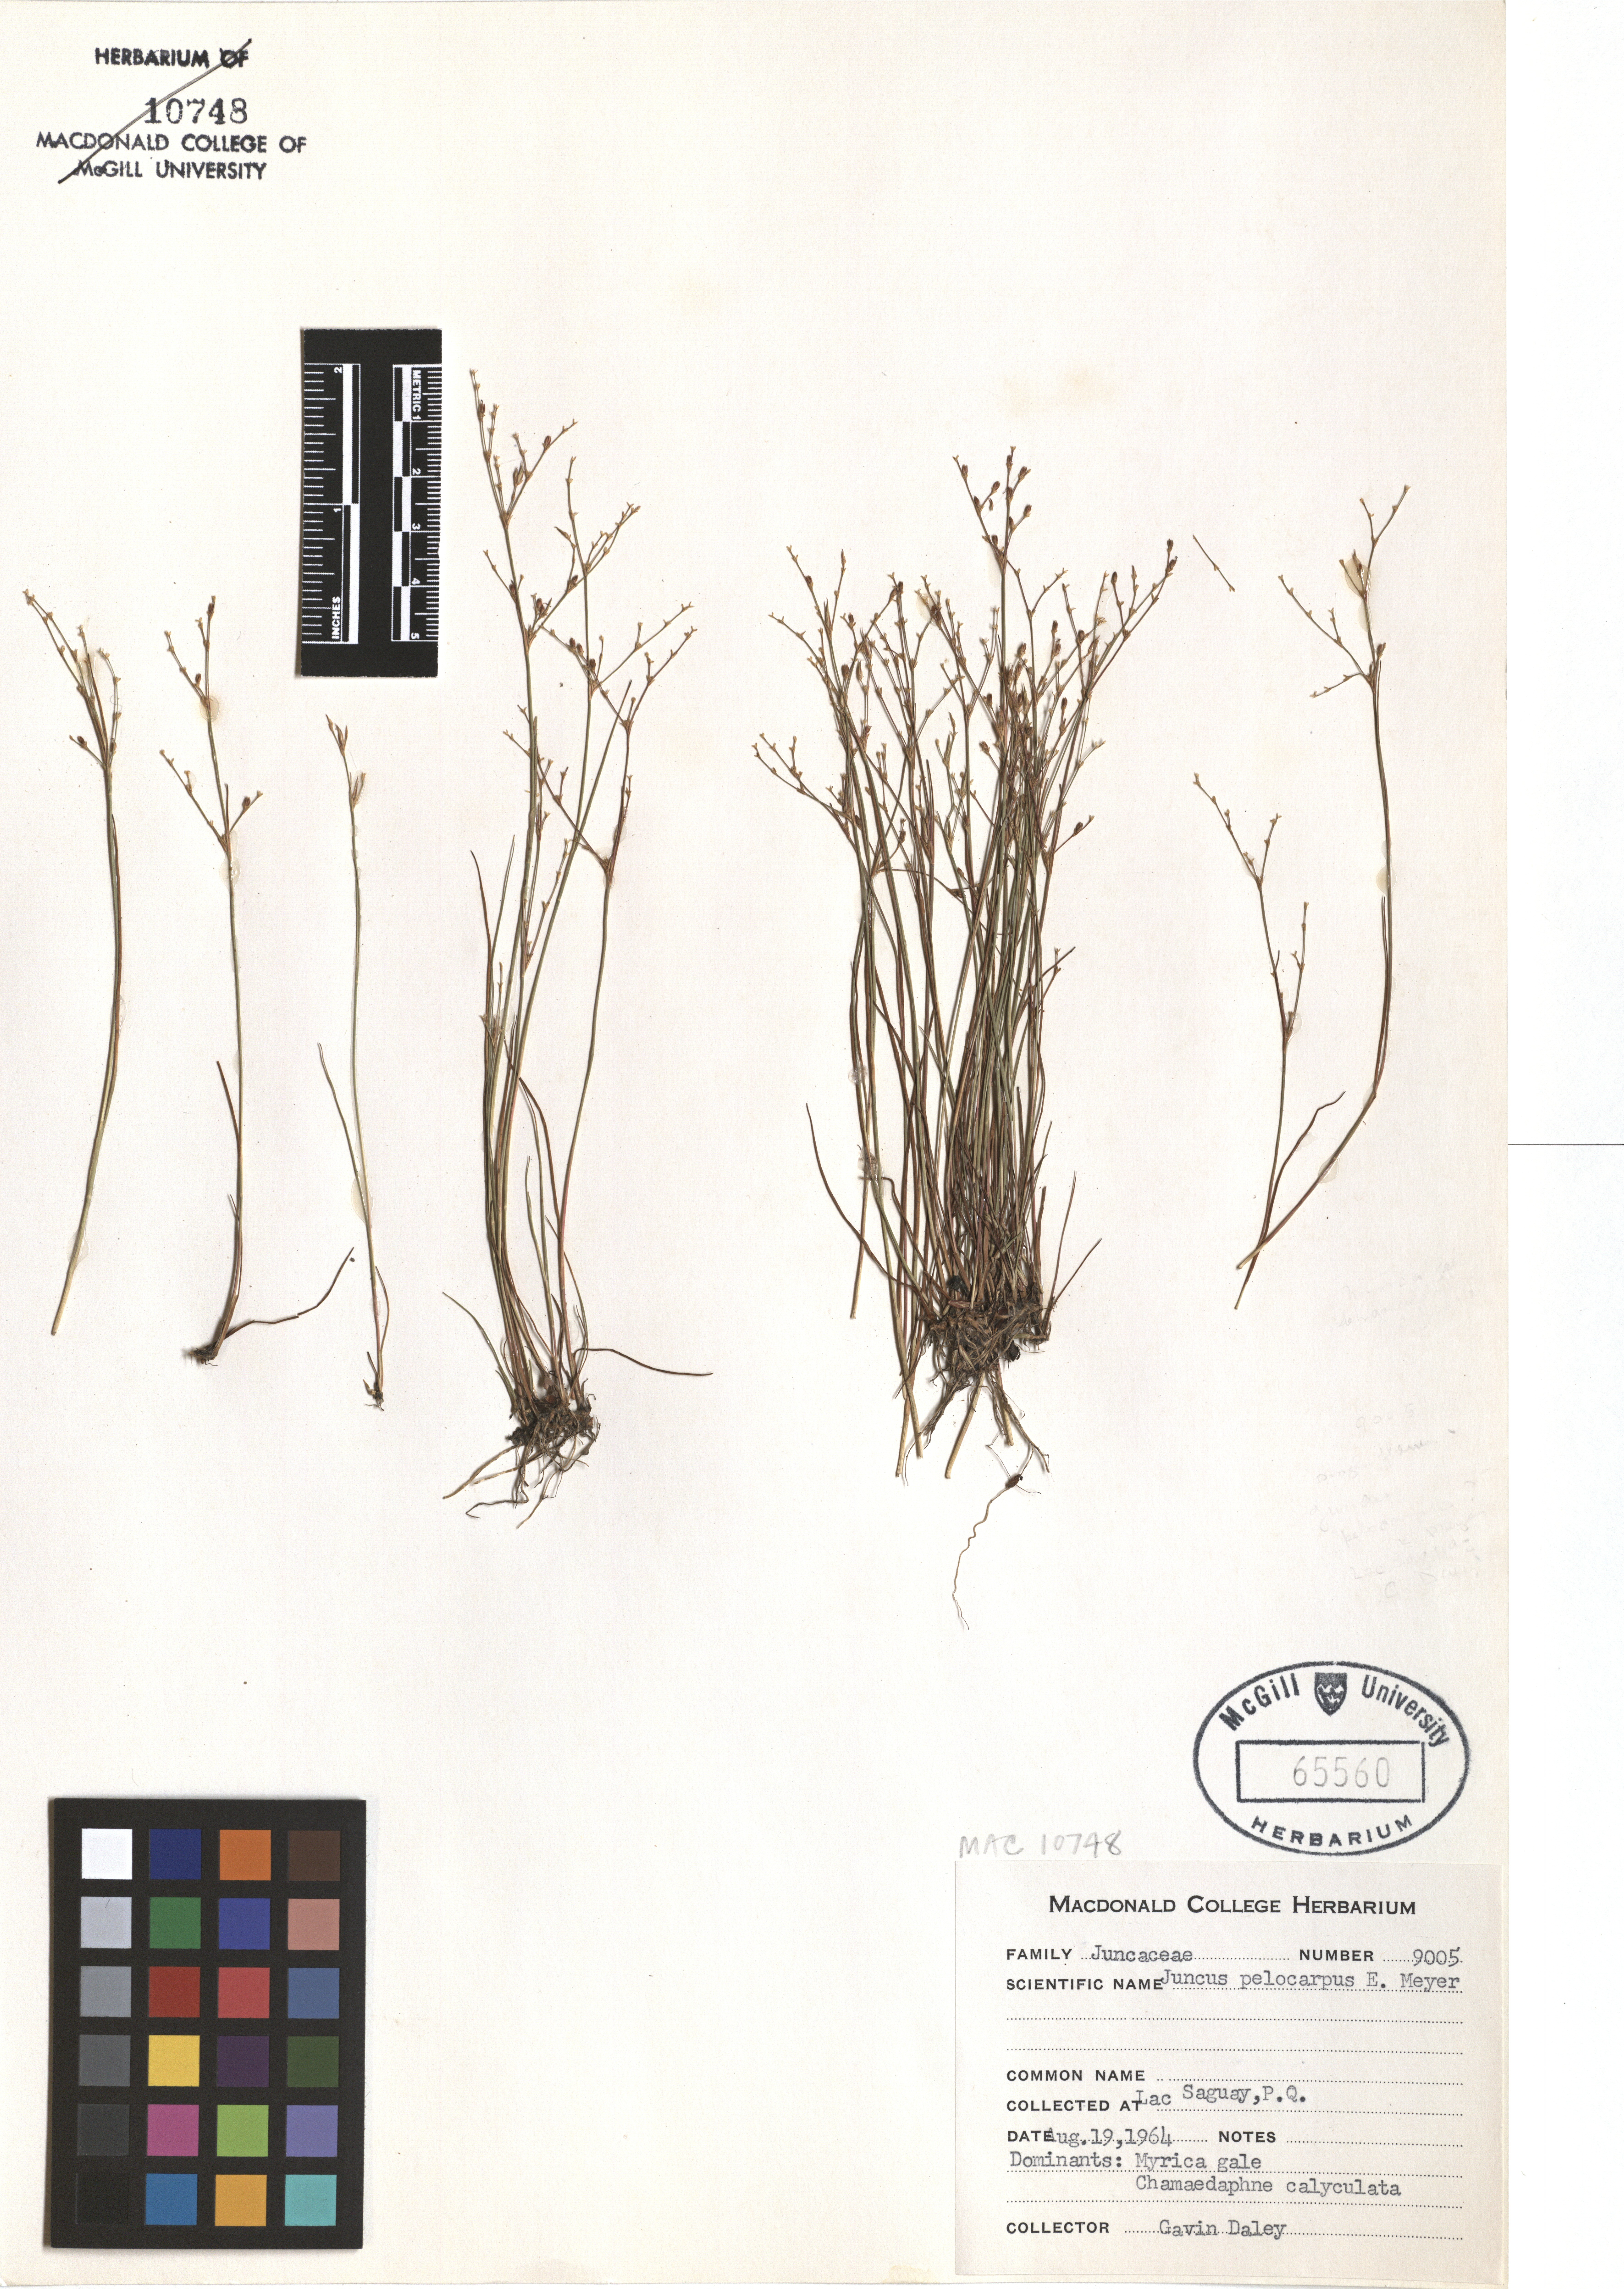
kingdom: Plantae
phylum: Tracheophyta
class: Liliopsida
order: Poales
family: Juncaceae
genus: Juncus
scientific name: Juncus pelocarpus
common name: Brown-fruited rush
